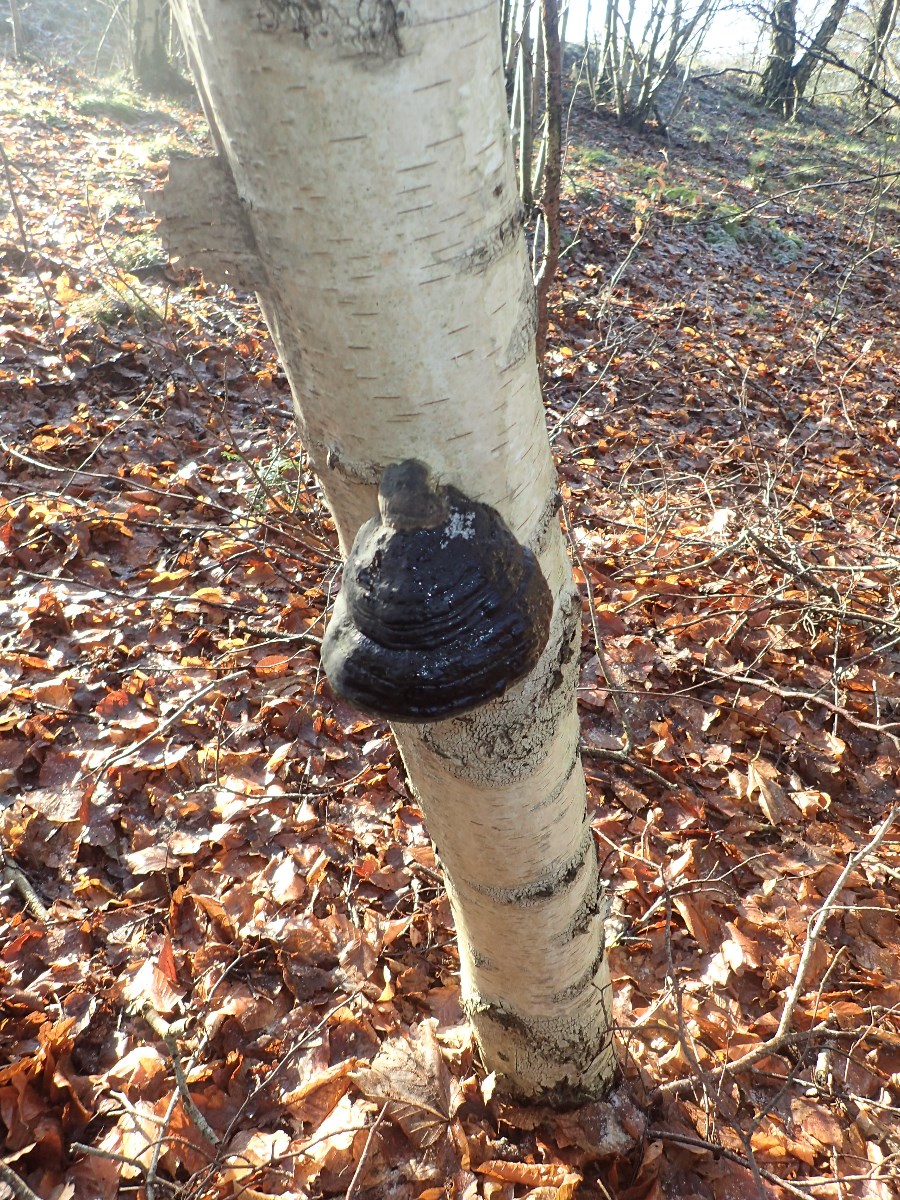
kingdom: Fungi
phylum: Basidiomycota
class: Agaricomycetes
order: Polyporales
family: Polyporaceae
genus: Fomes
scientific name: Fomes fomentarius
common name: tøndersvamp
